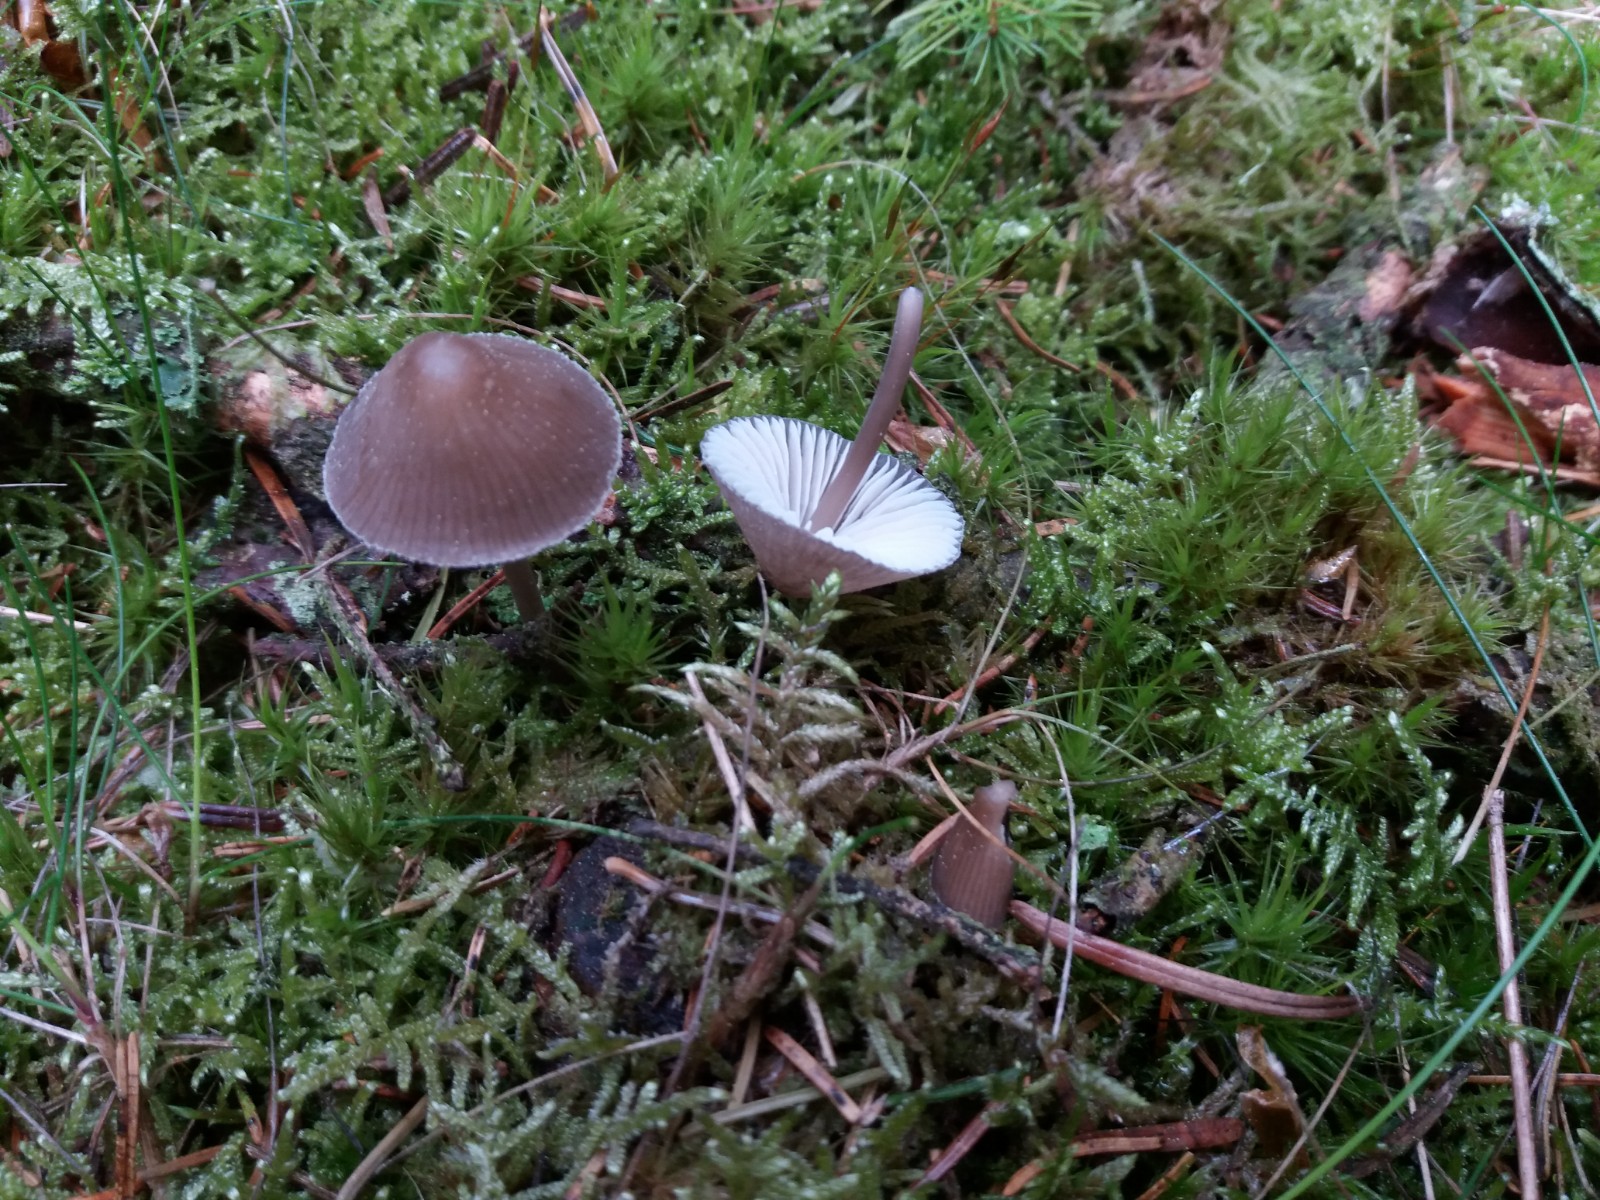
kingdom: Fungi
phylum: Basidiomycota
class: Agaricomycetes
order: Agaricales
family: Mycenaceae
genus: Mycena
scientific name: Mycena silvae-nigrae
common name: tidlig huesvamp
